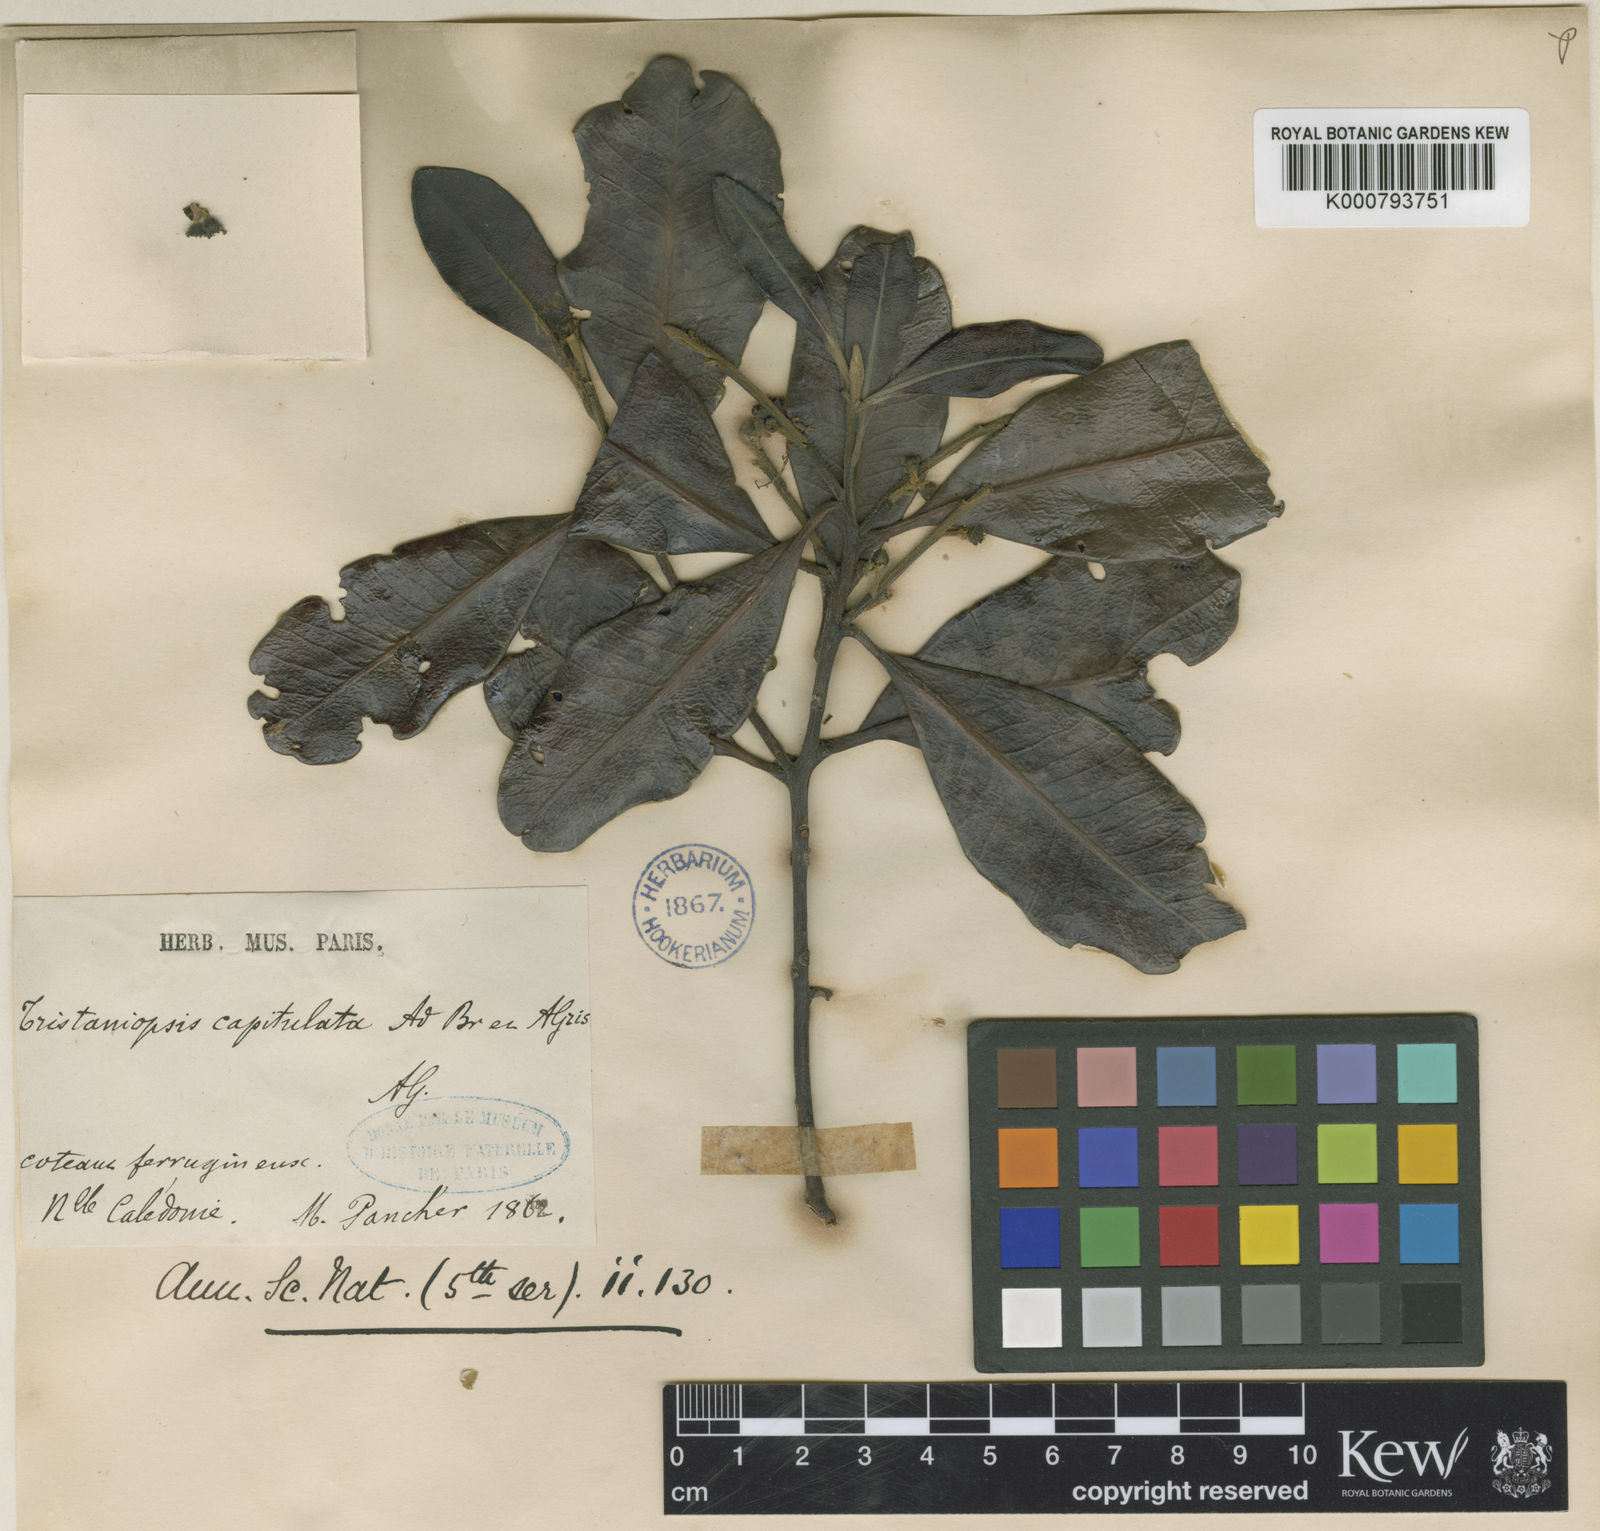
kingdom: Plantae
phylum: Tracheophyta
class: Magnoliopsida
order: Myrtales
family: Myrtaceae
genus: Tristaniopsis
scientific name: Tristaniopsis capitulata
